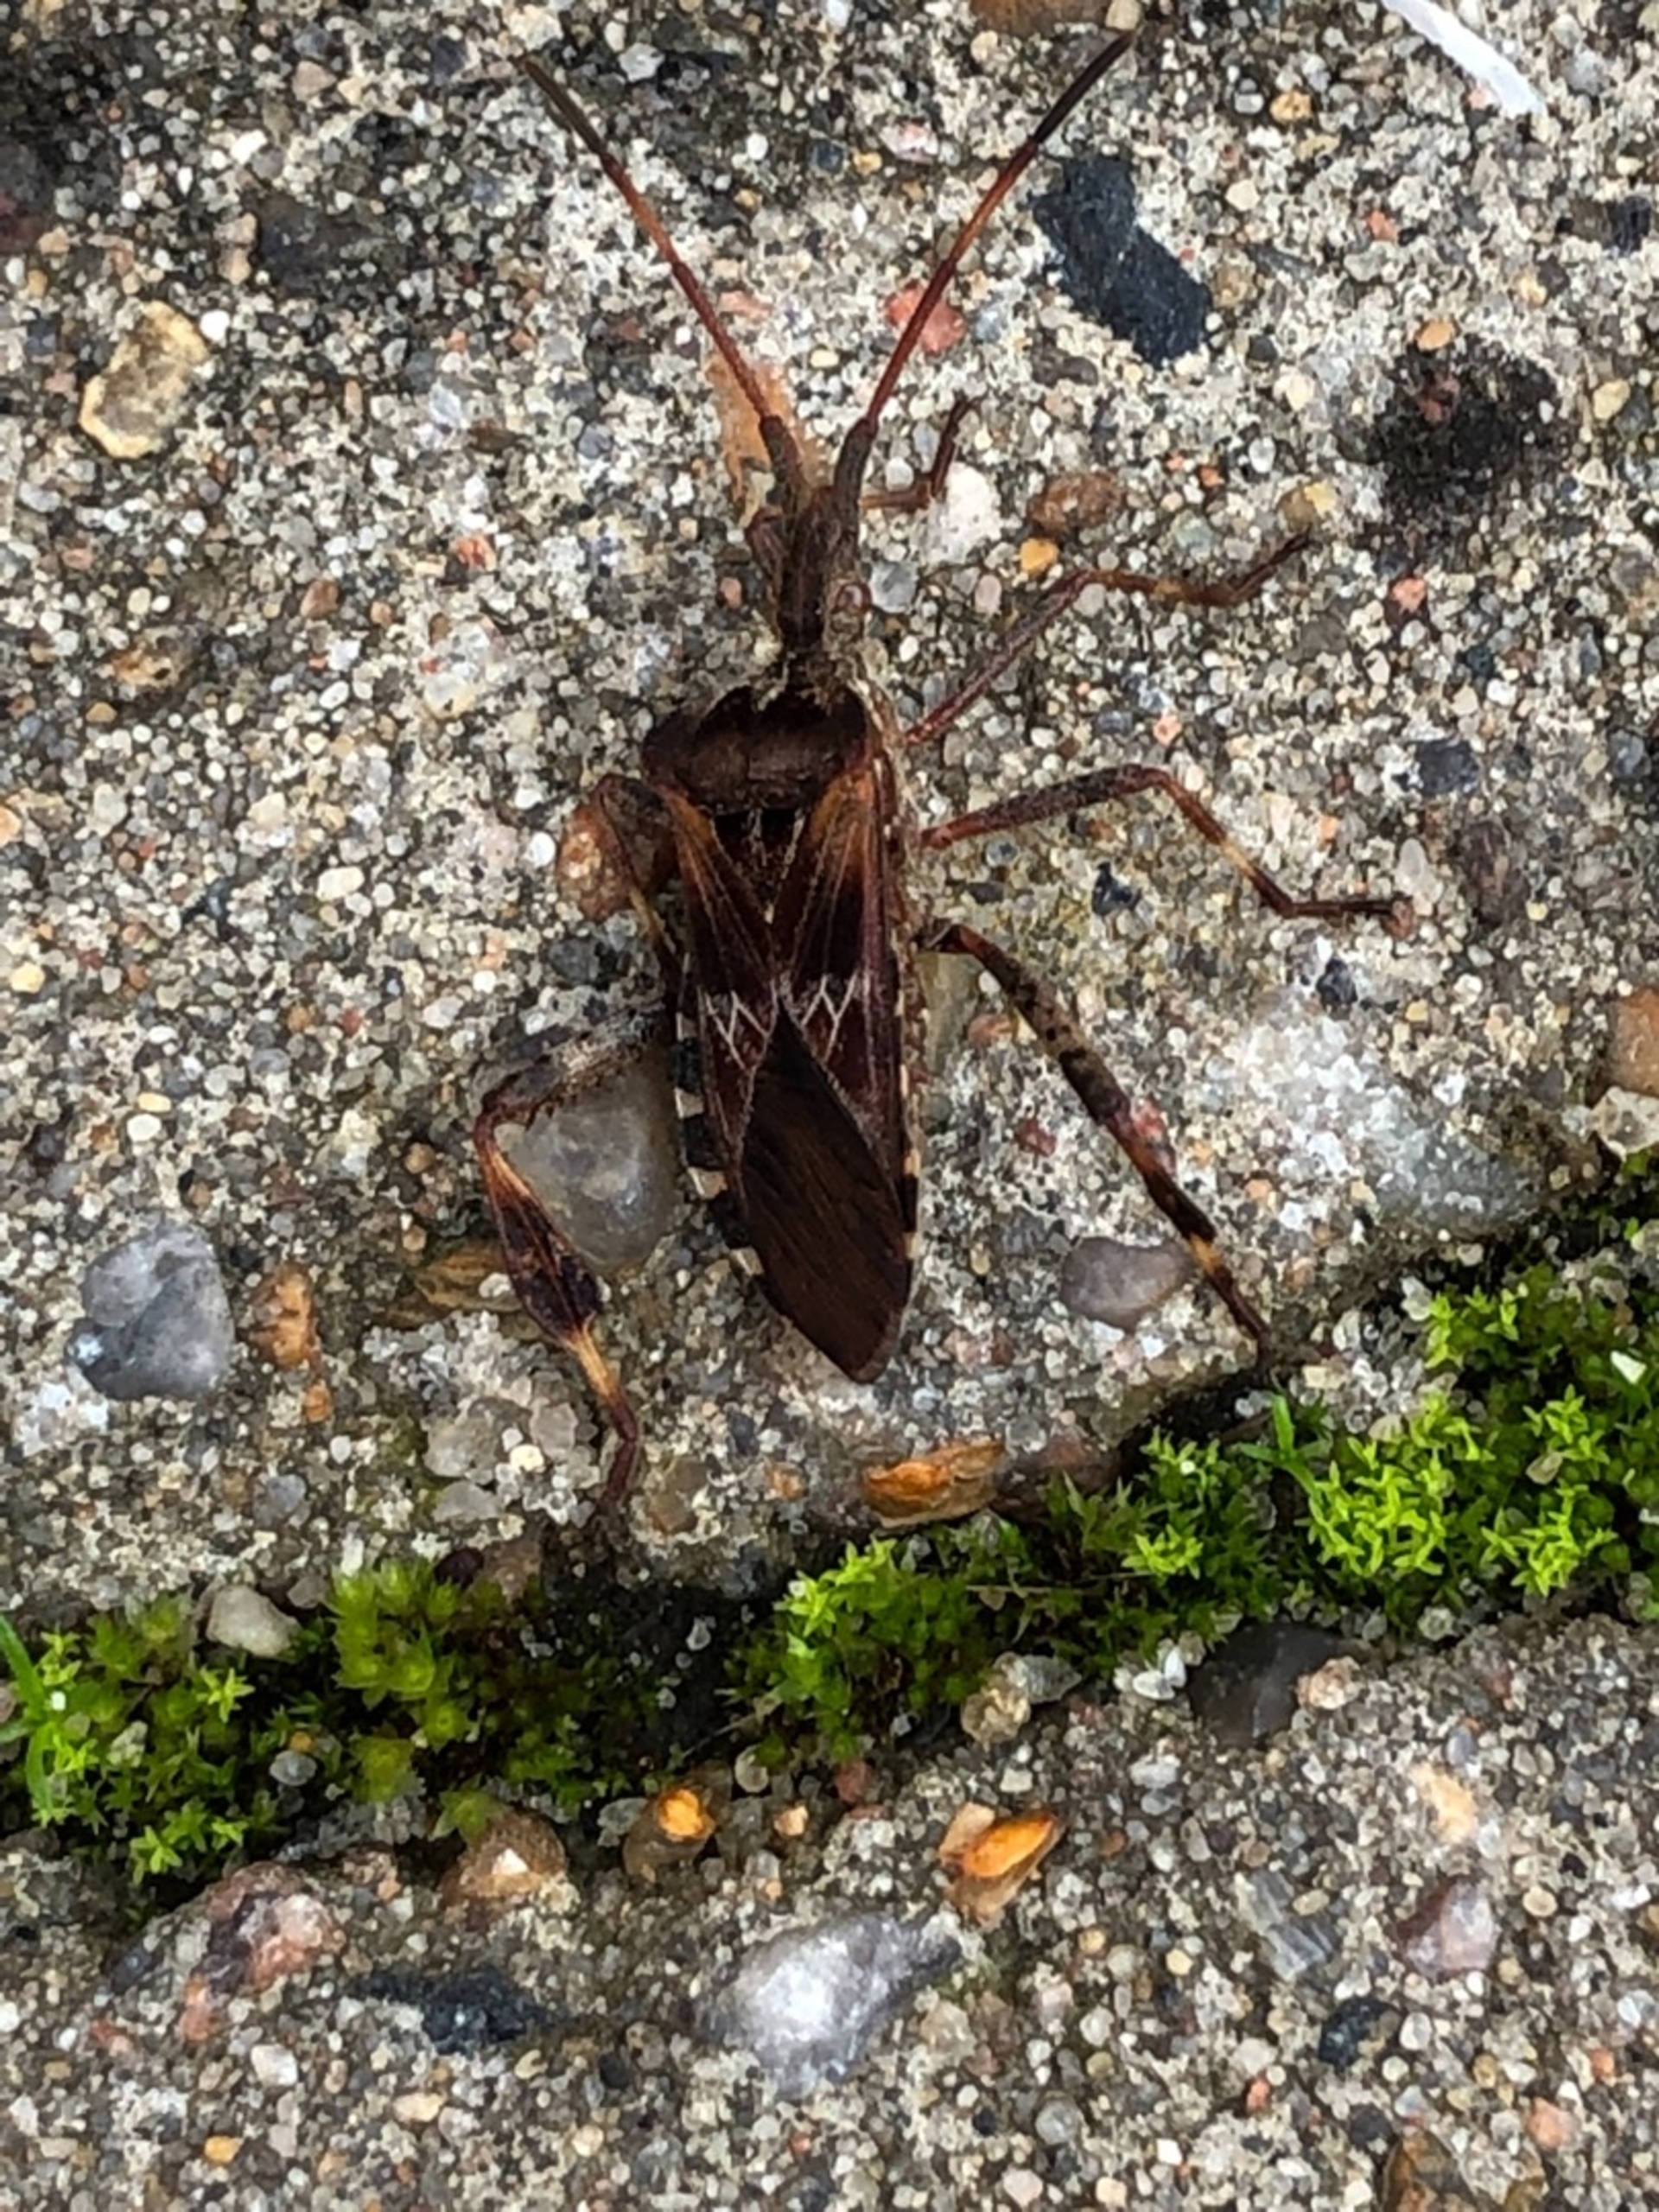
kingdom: Animalia
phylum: Arthropoda
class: Insecta
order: Hemiptera
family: Coreidae
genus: Leptoglossus
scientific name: Leptoglossus occidentalis
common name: Amerikansk fyrretæge
